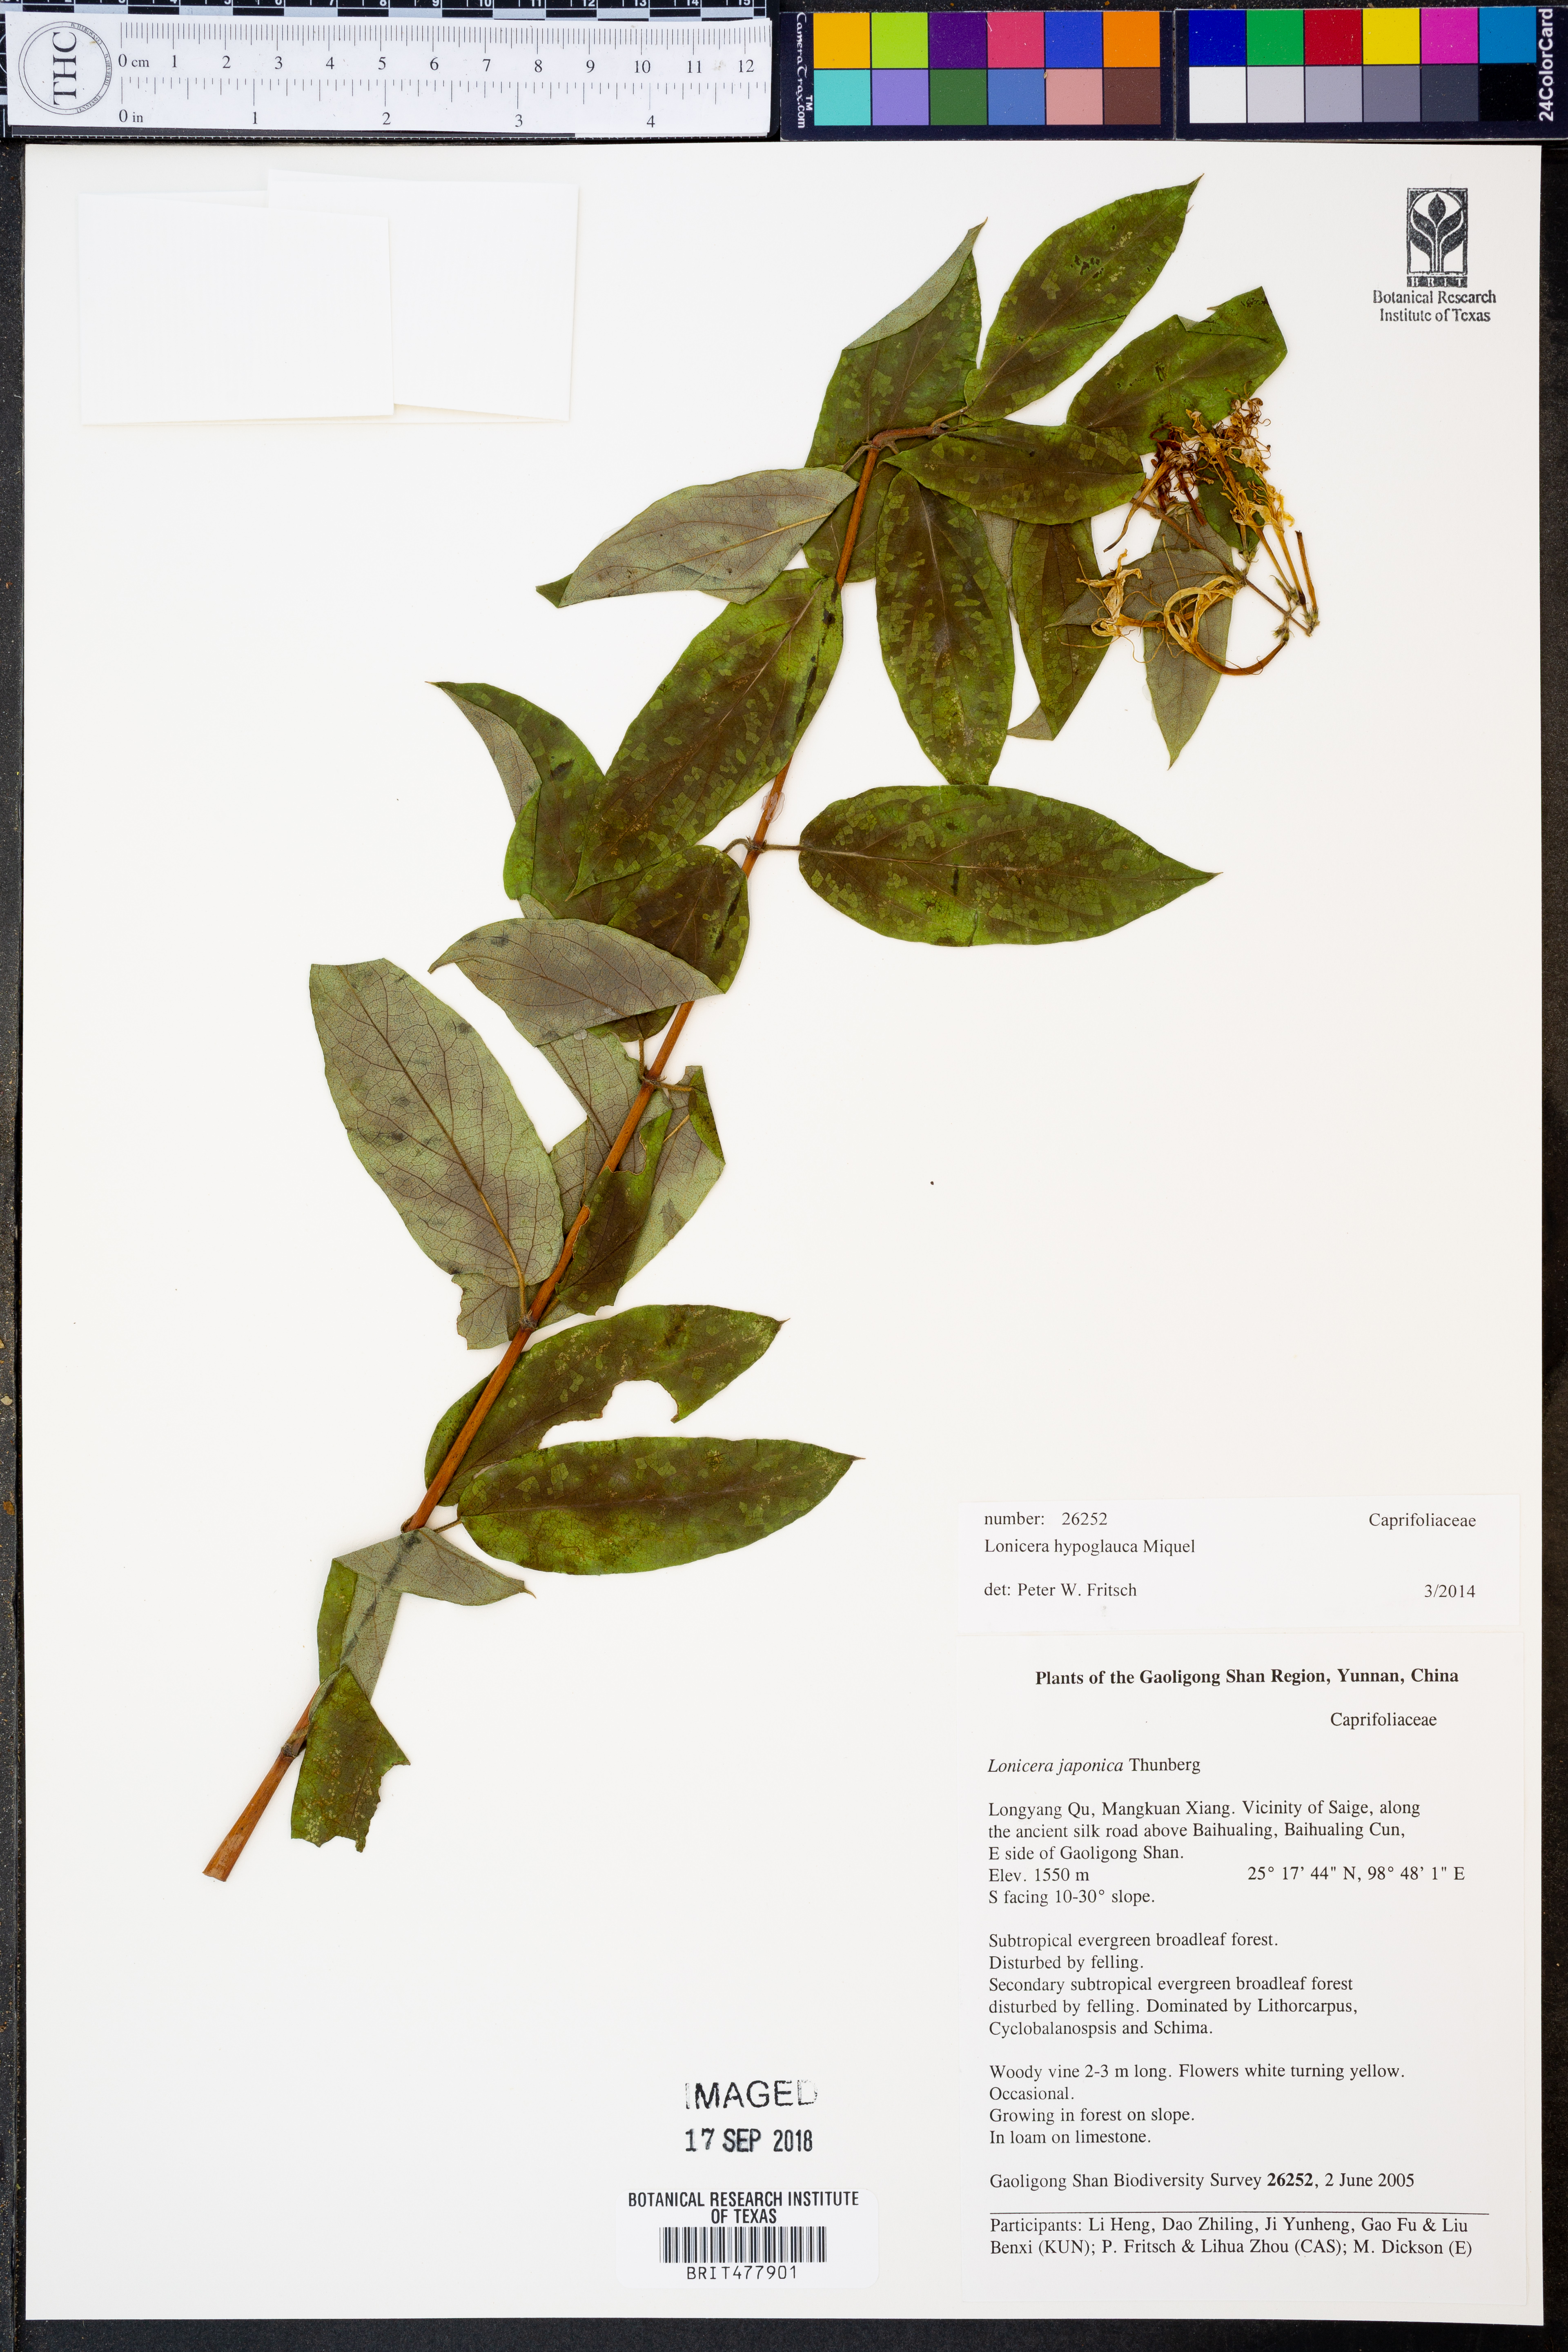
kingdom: Plantae
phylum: Tracheophyta
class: Magnoliopsida
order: Dipsacales
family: Caprifoliaceae
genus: Lonicera
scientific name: Lonicera hypoglauca
